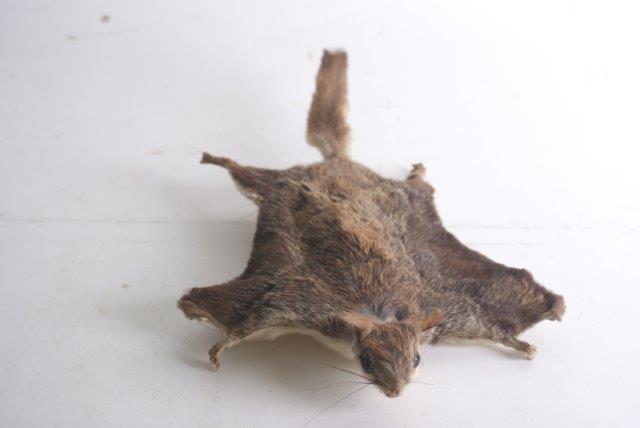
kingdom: Animalia
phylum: Chordata
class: Mammalia
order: Rodentia
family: Sciuridae
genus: Pteromys
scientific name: Pteromys volans
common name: Siberian Flying Squirrel
